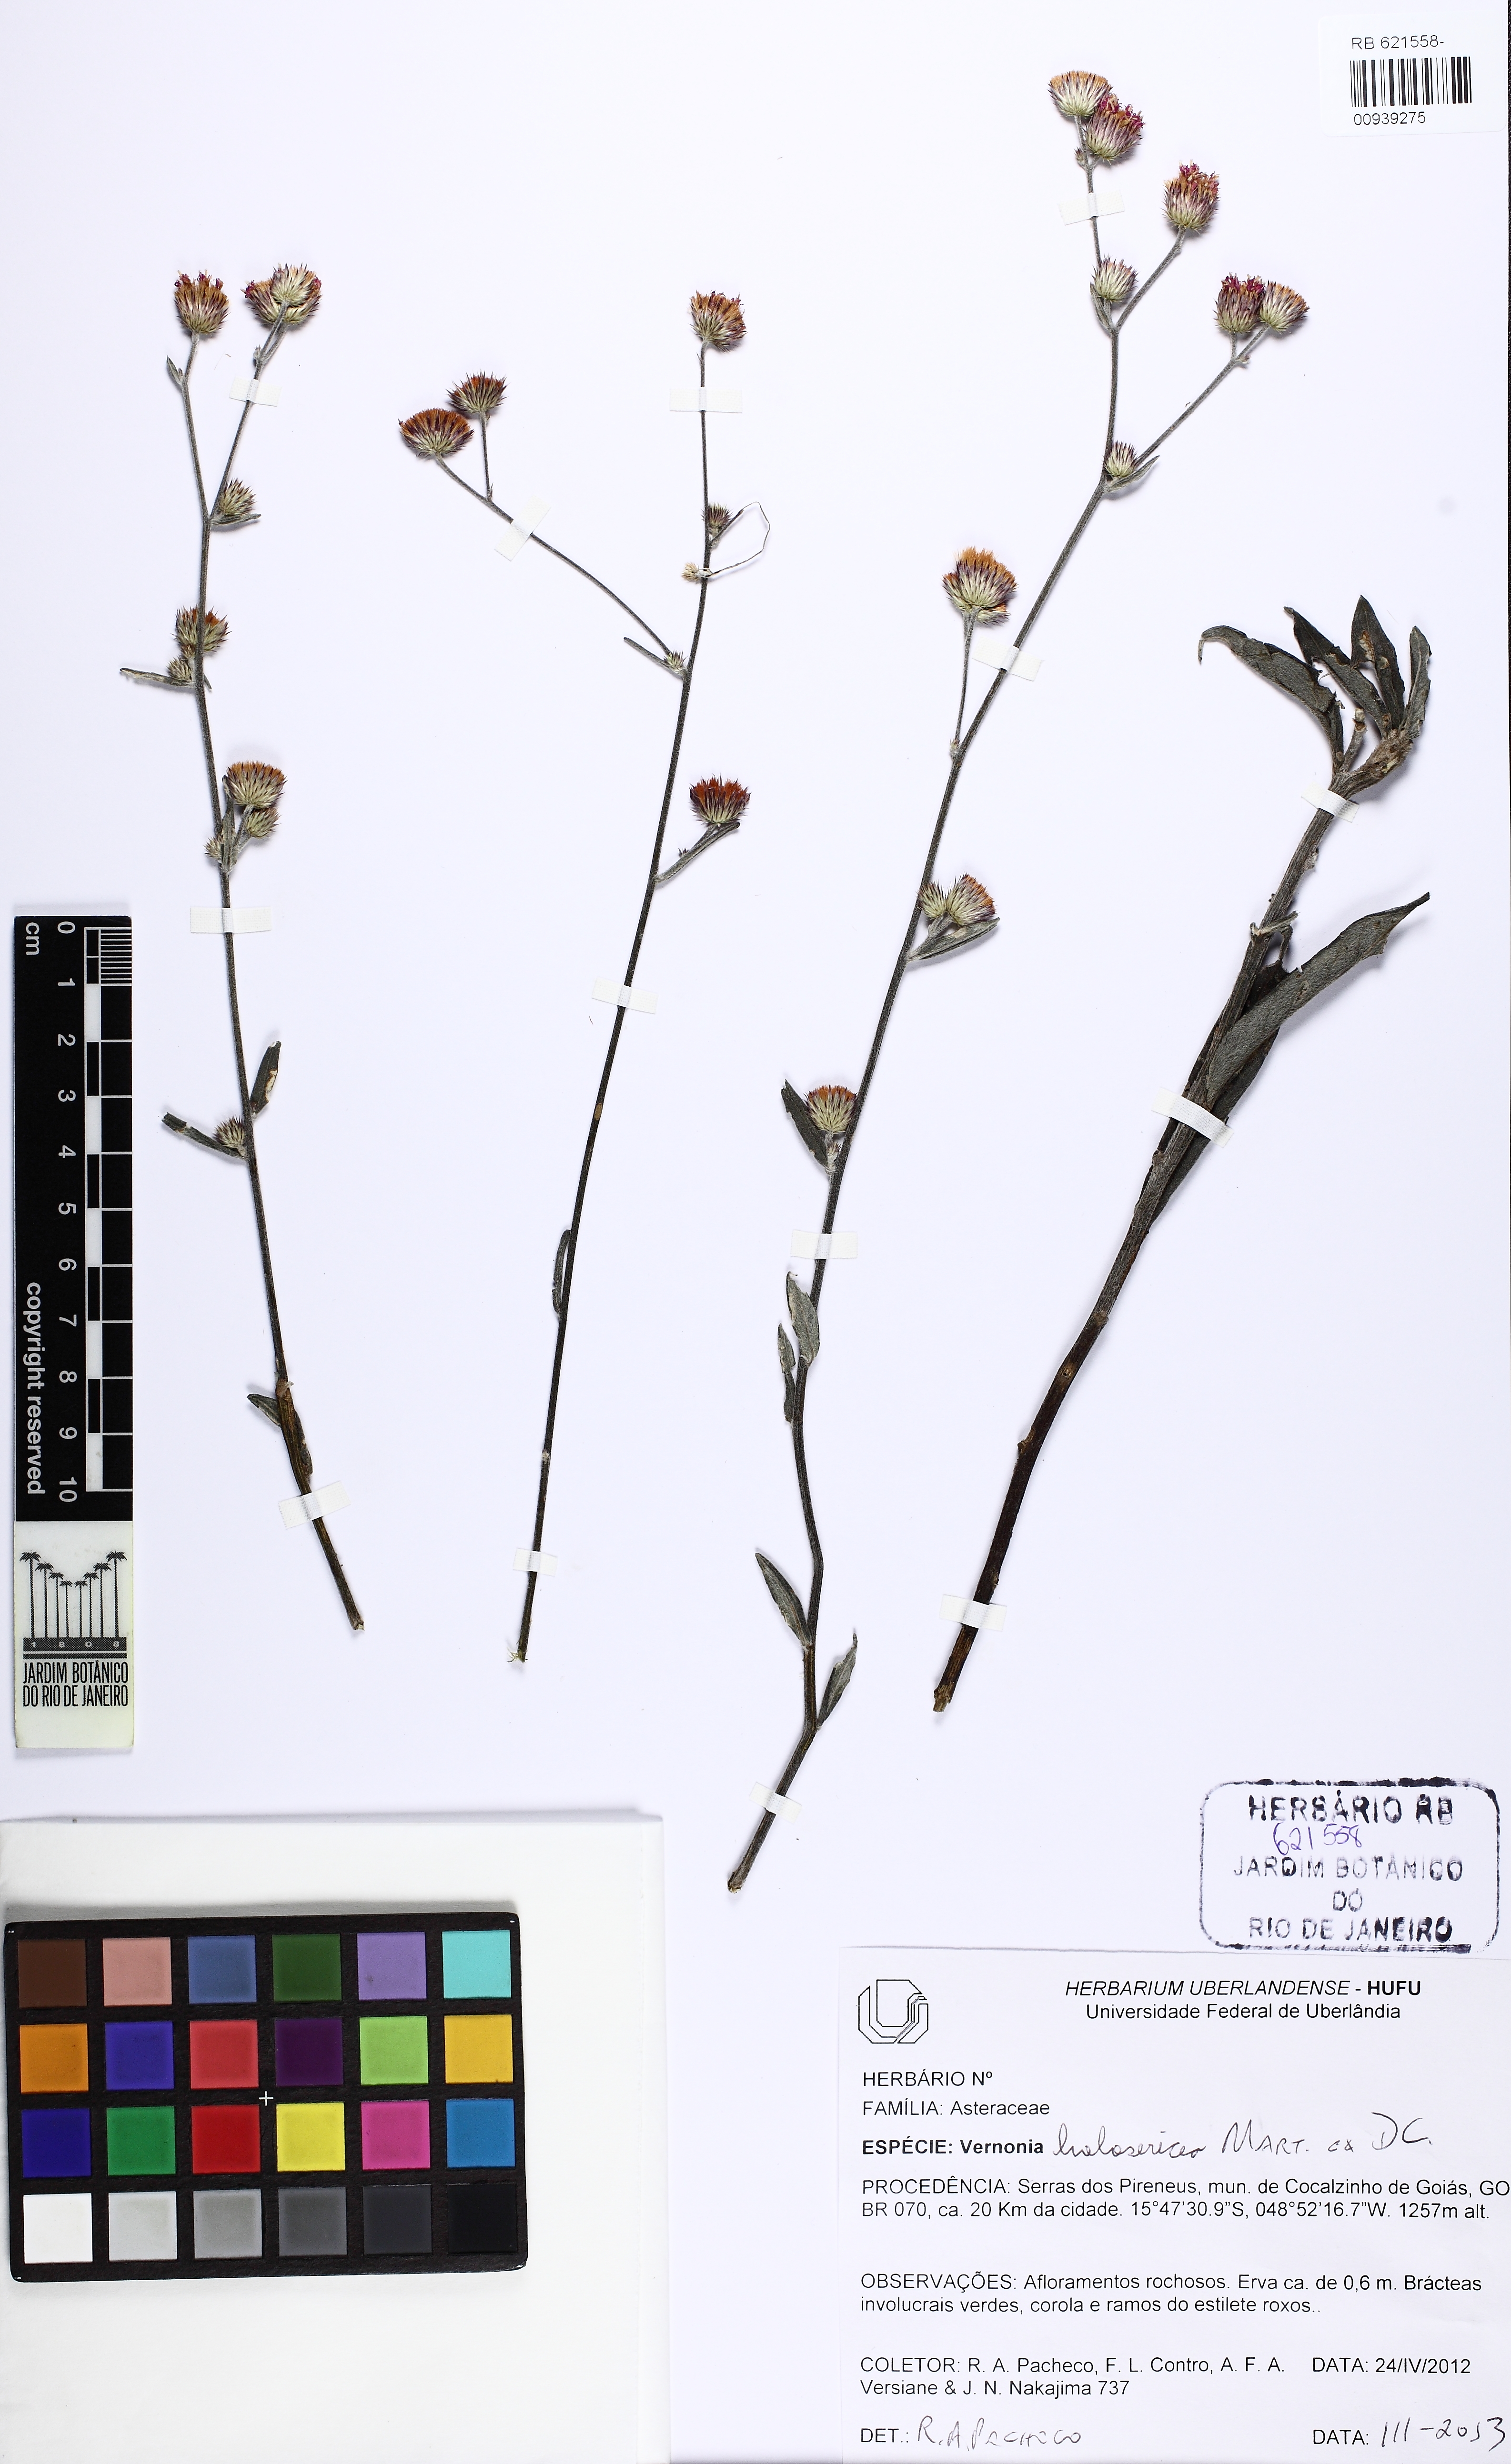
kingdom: Plantae
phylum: Tracheophyta
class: Magnoliopsida
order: Asterales
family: Asteraceae
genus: Echinocoryne
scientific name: Echinocoryne holosericea
